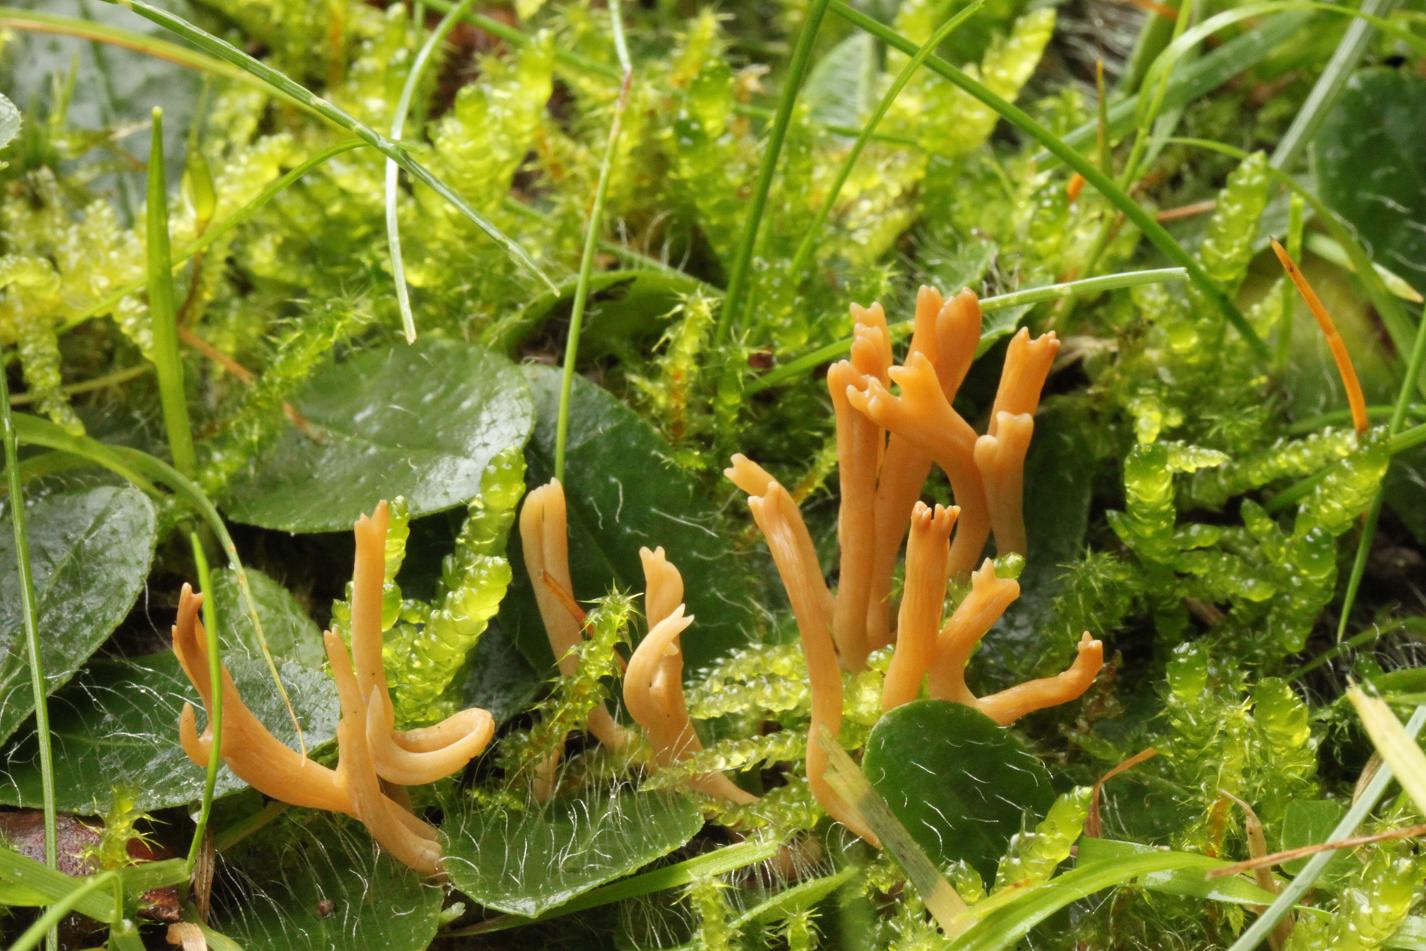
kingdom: Fungi
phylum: Basidiomycota
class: Agaricomycetes
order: Agaricales
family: Clavariaceae
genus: Clavulinopsis
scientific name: Clavulinopsis corniculata
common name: eng-køllesvamp
